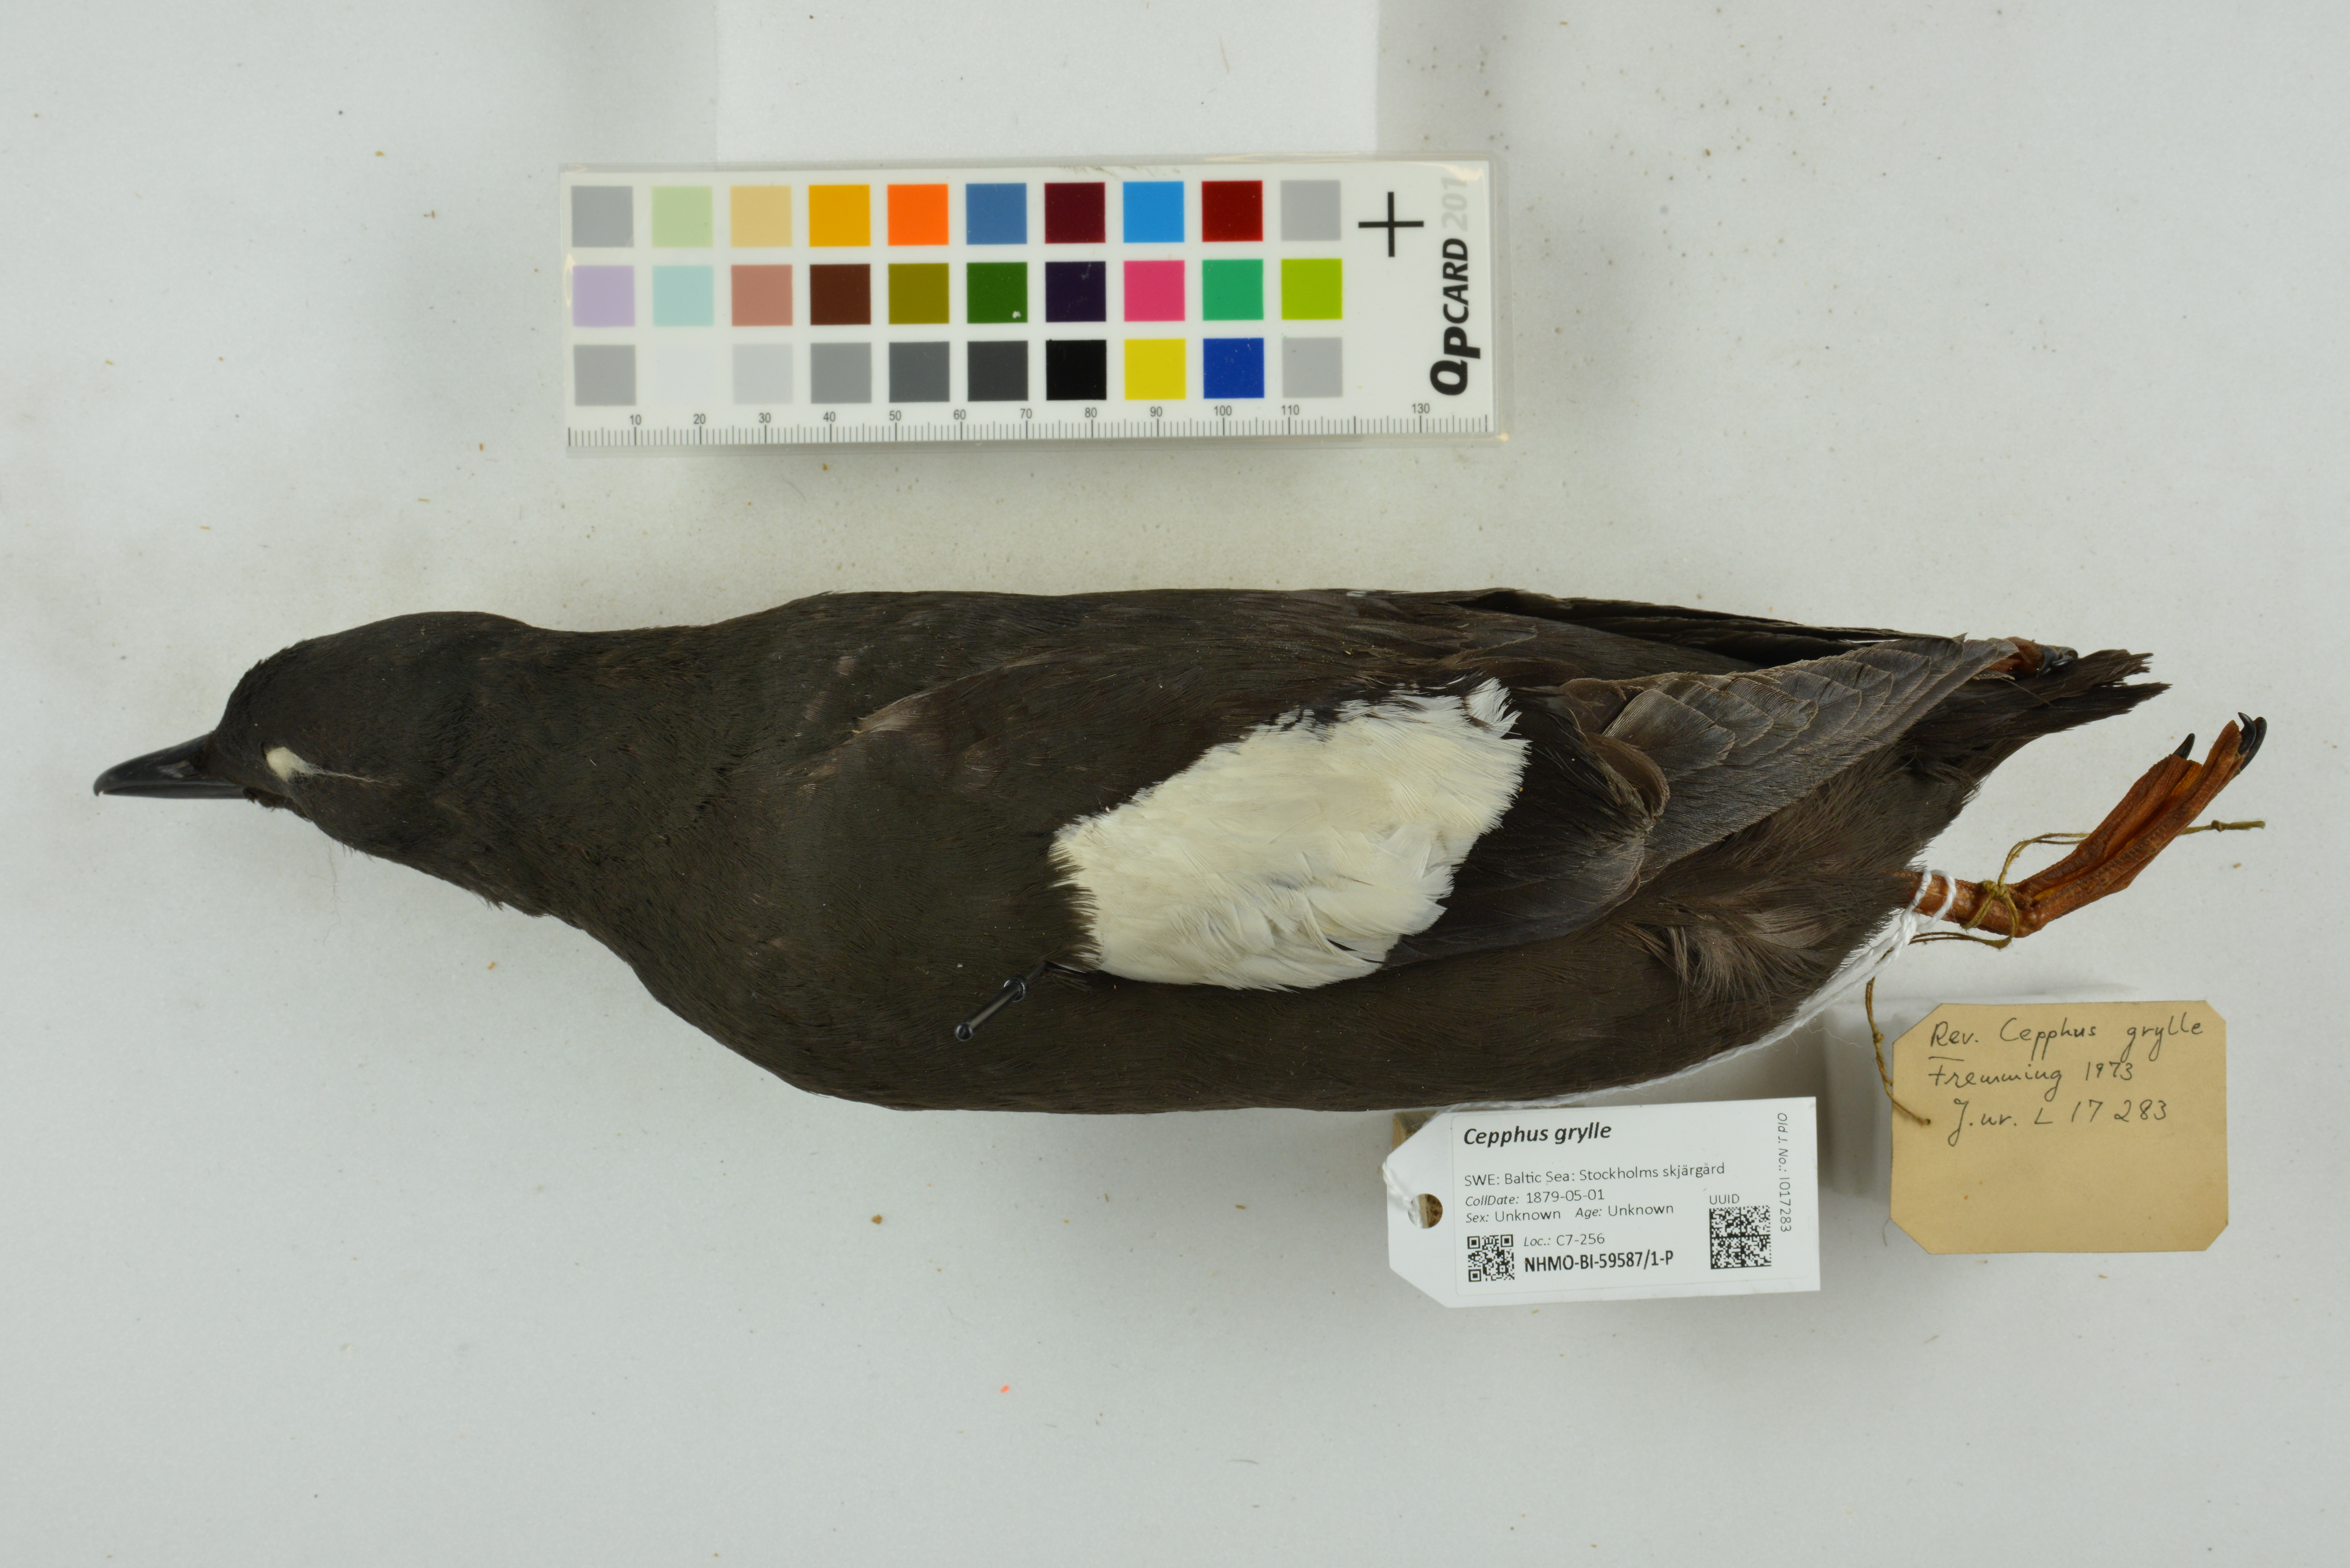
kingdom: Animalia
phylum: Chordata
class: Aves
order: Charadriiformes
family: Alcidae
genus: Cepphus
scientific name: Cepphus grylle
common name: Black guillemot
